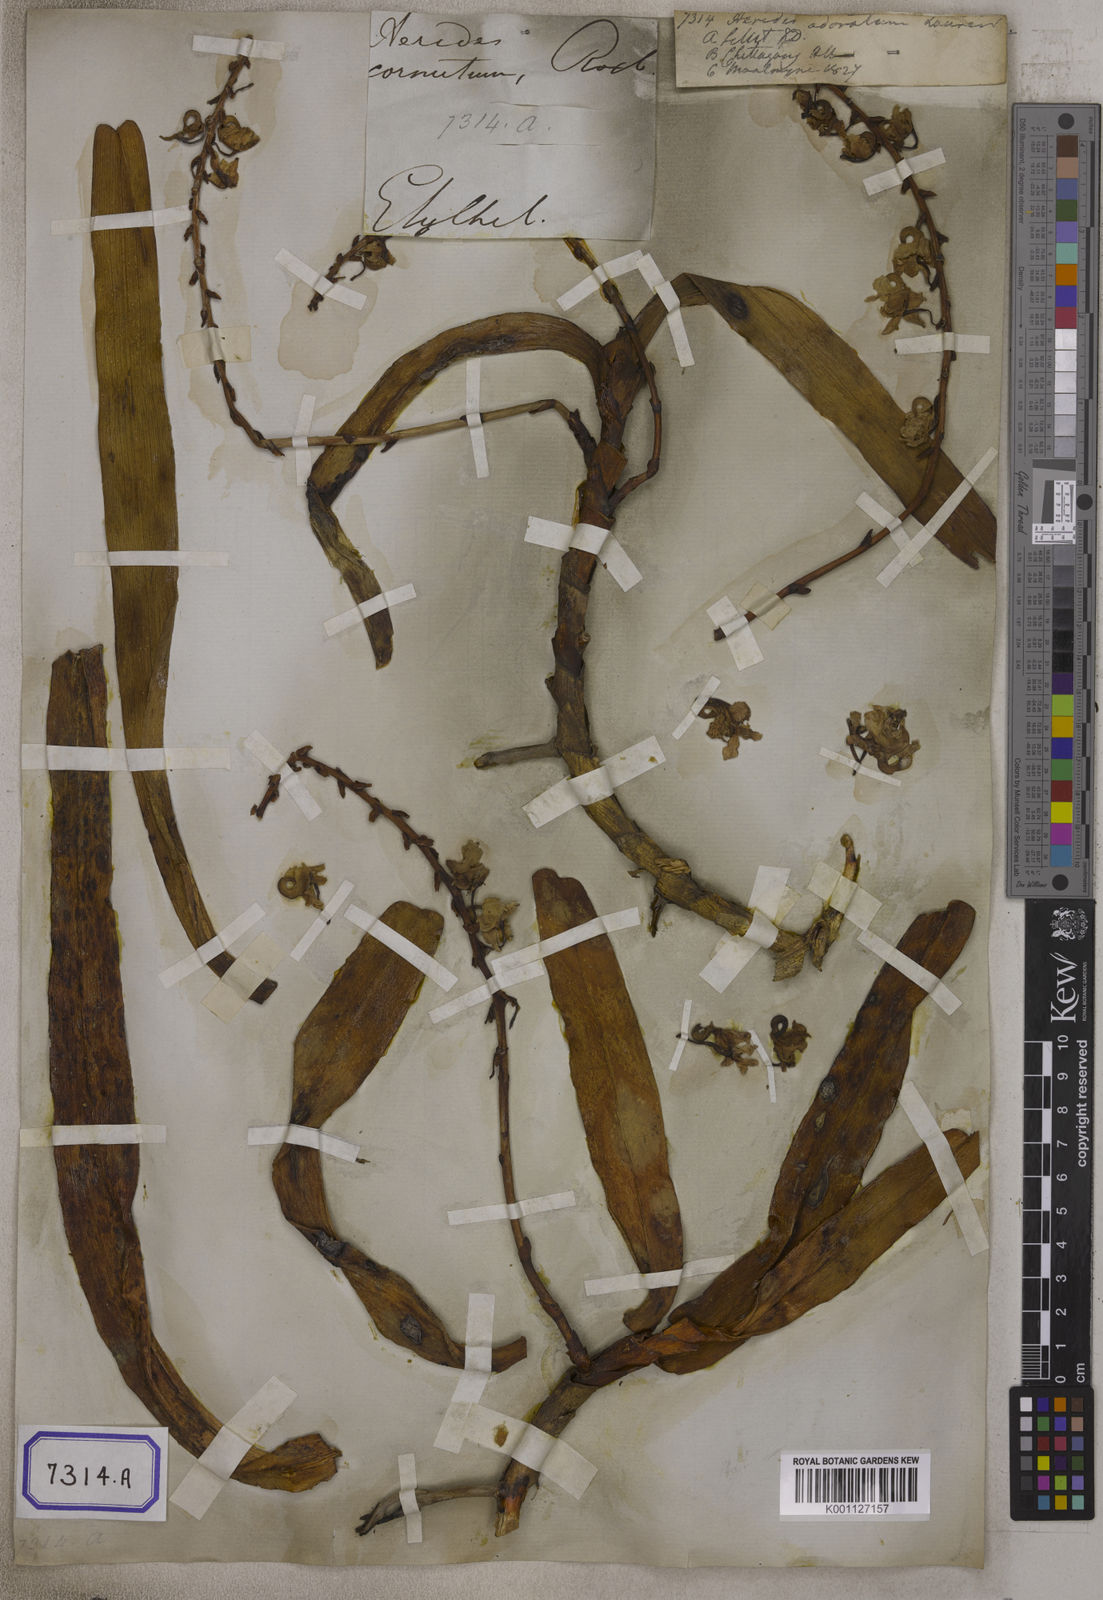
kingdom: Plantae
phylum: Tracheophyta
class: Liliopsida
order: Asparagales
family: Orchidaceae
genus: Aerides
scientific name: Aerides odorata
